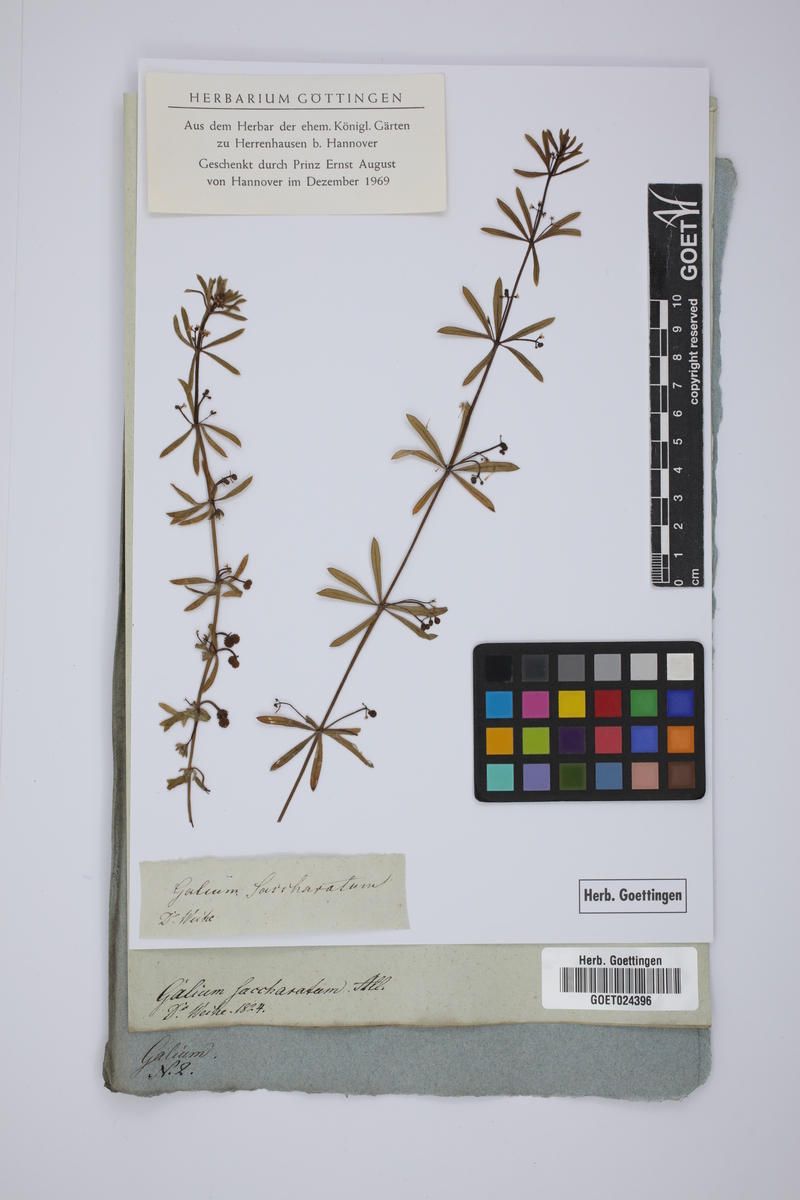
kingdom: Plantae
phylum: Tracheophyta
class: Magnoliopsida
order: Gentianales
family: Rubiaceae
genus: Galium
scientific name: Galium verrucosum
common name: Warty bedstraw
